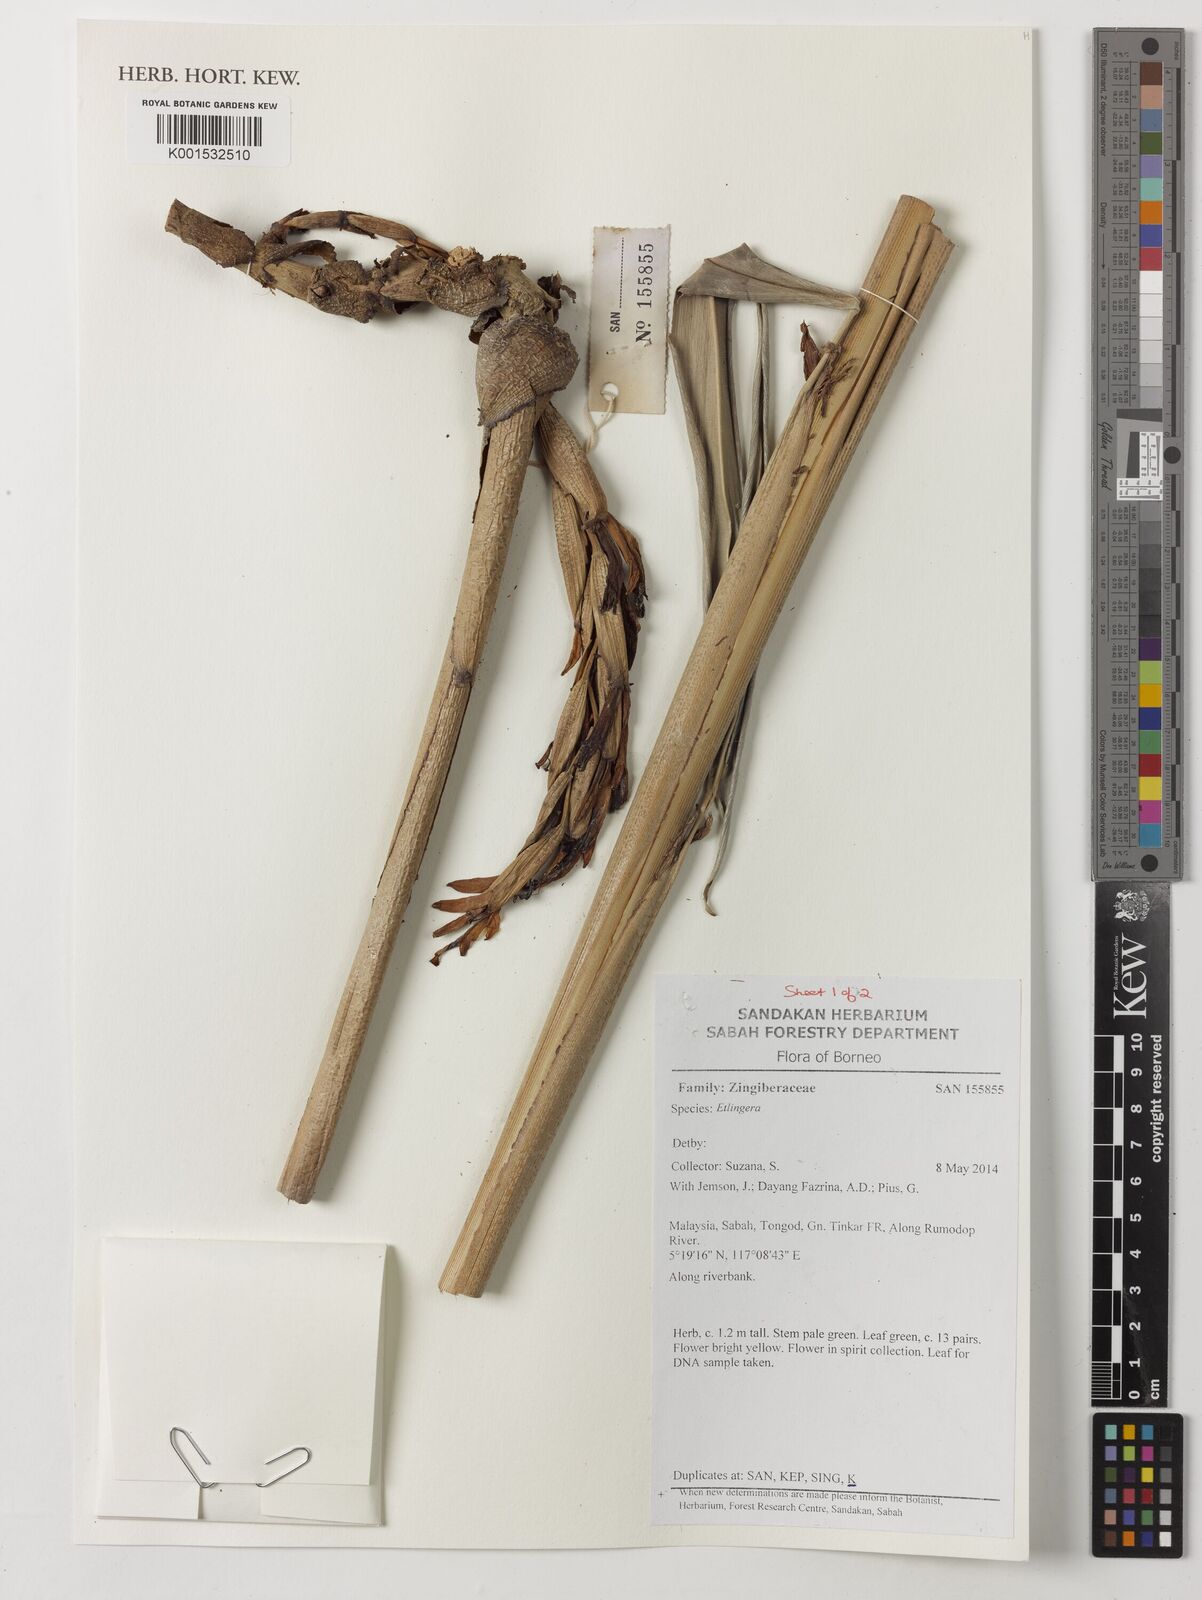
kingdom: Plantae
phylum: Tracheophyta
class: Liliopsida
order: Zingiberales
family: Zingiberaceae
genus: Etlingera
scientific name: Etlingera
